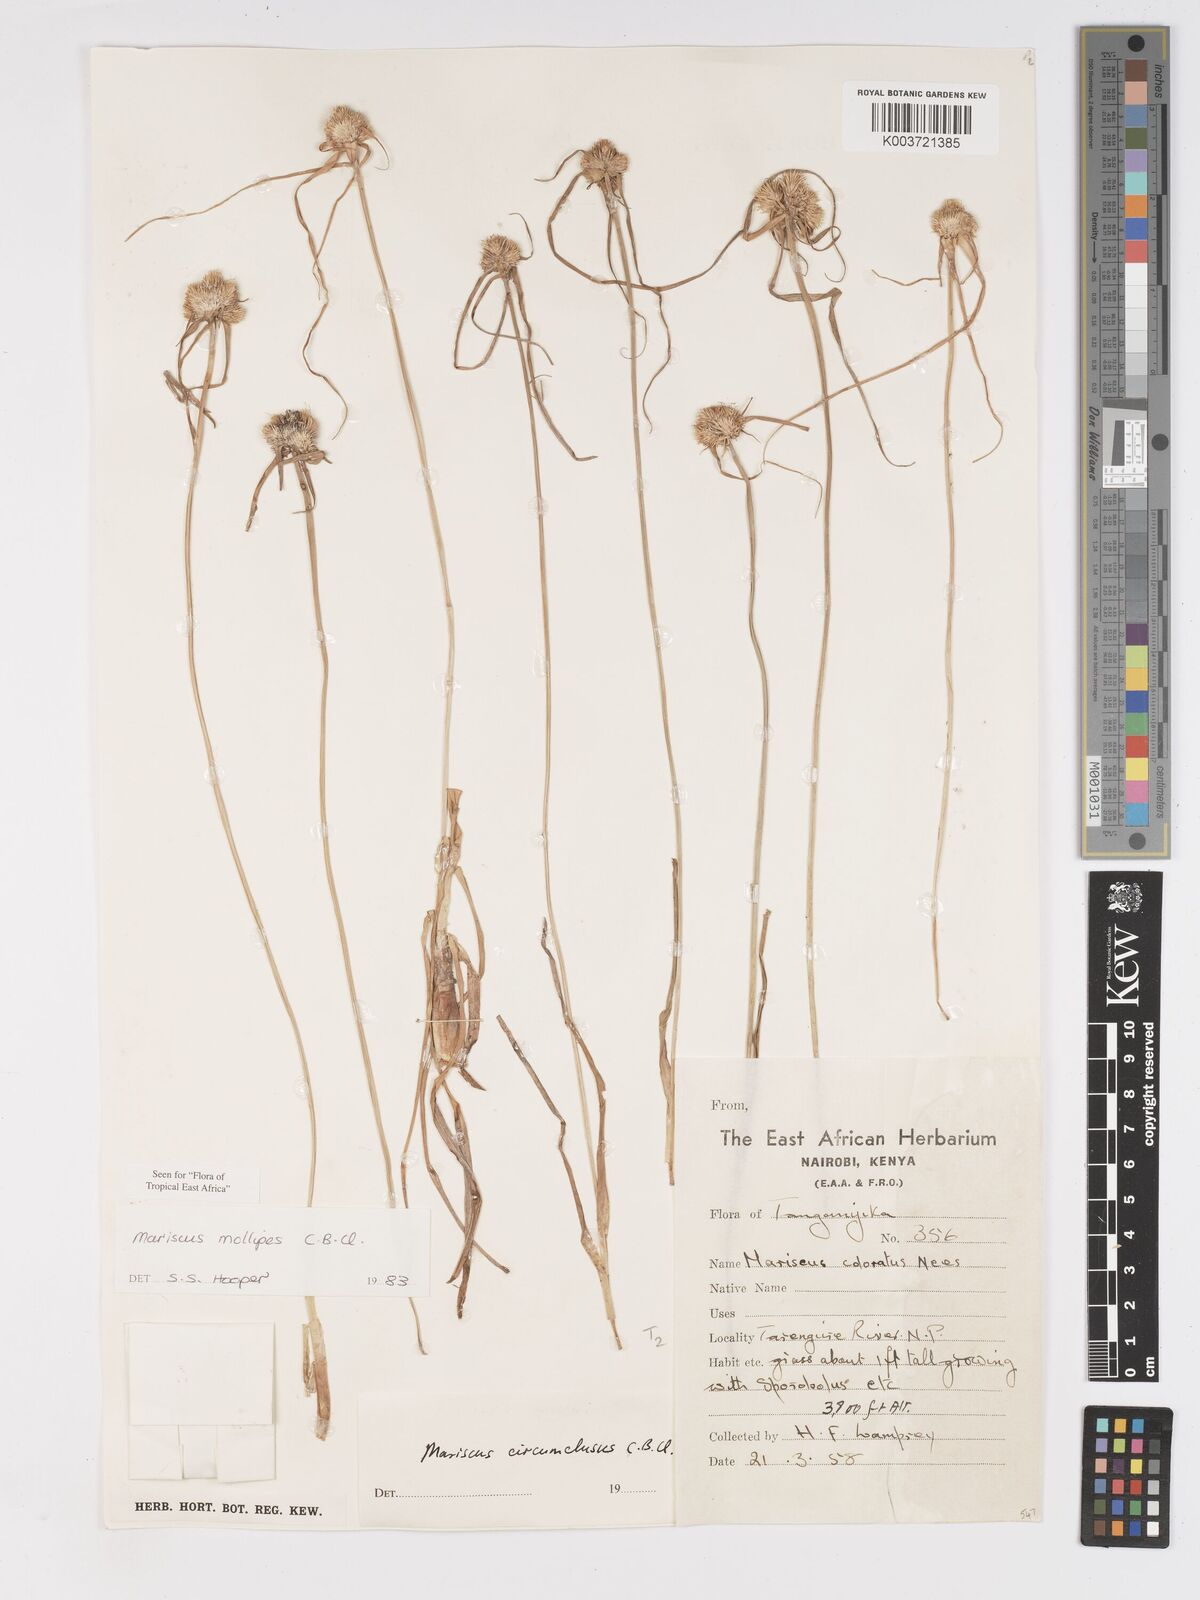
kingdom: Plantae
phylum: Tracheophyta
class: Liliopsida
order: Poales
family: Cyperaceae
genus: Cyperus
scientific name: Cyperus mollipes
